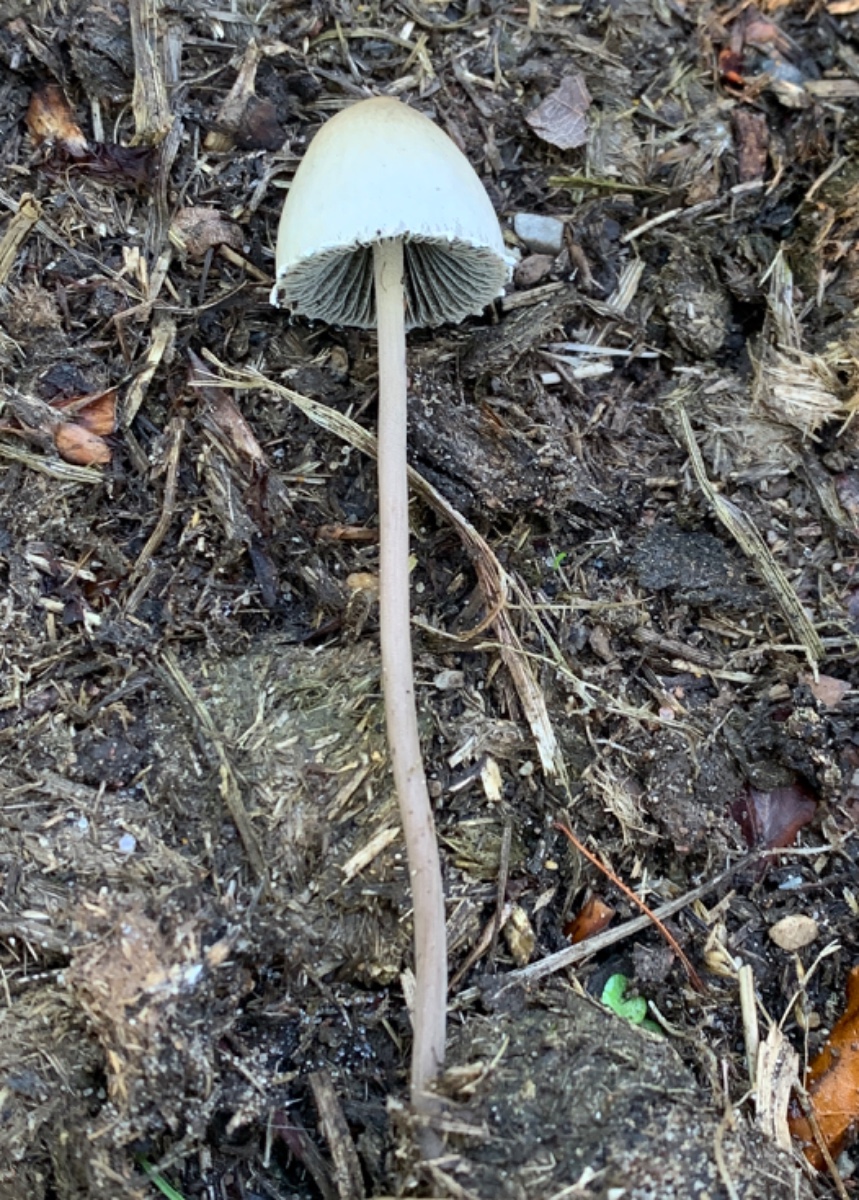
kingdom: Fungi
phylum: Basidiomycota
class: Agaricomycetes
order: Agaricales
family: Bolbitiaceae
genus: Panaeolus
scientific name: Panaeolus papilionaceus
